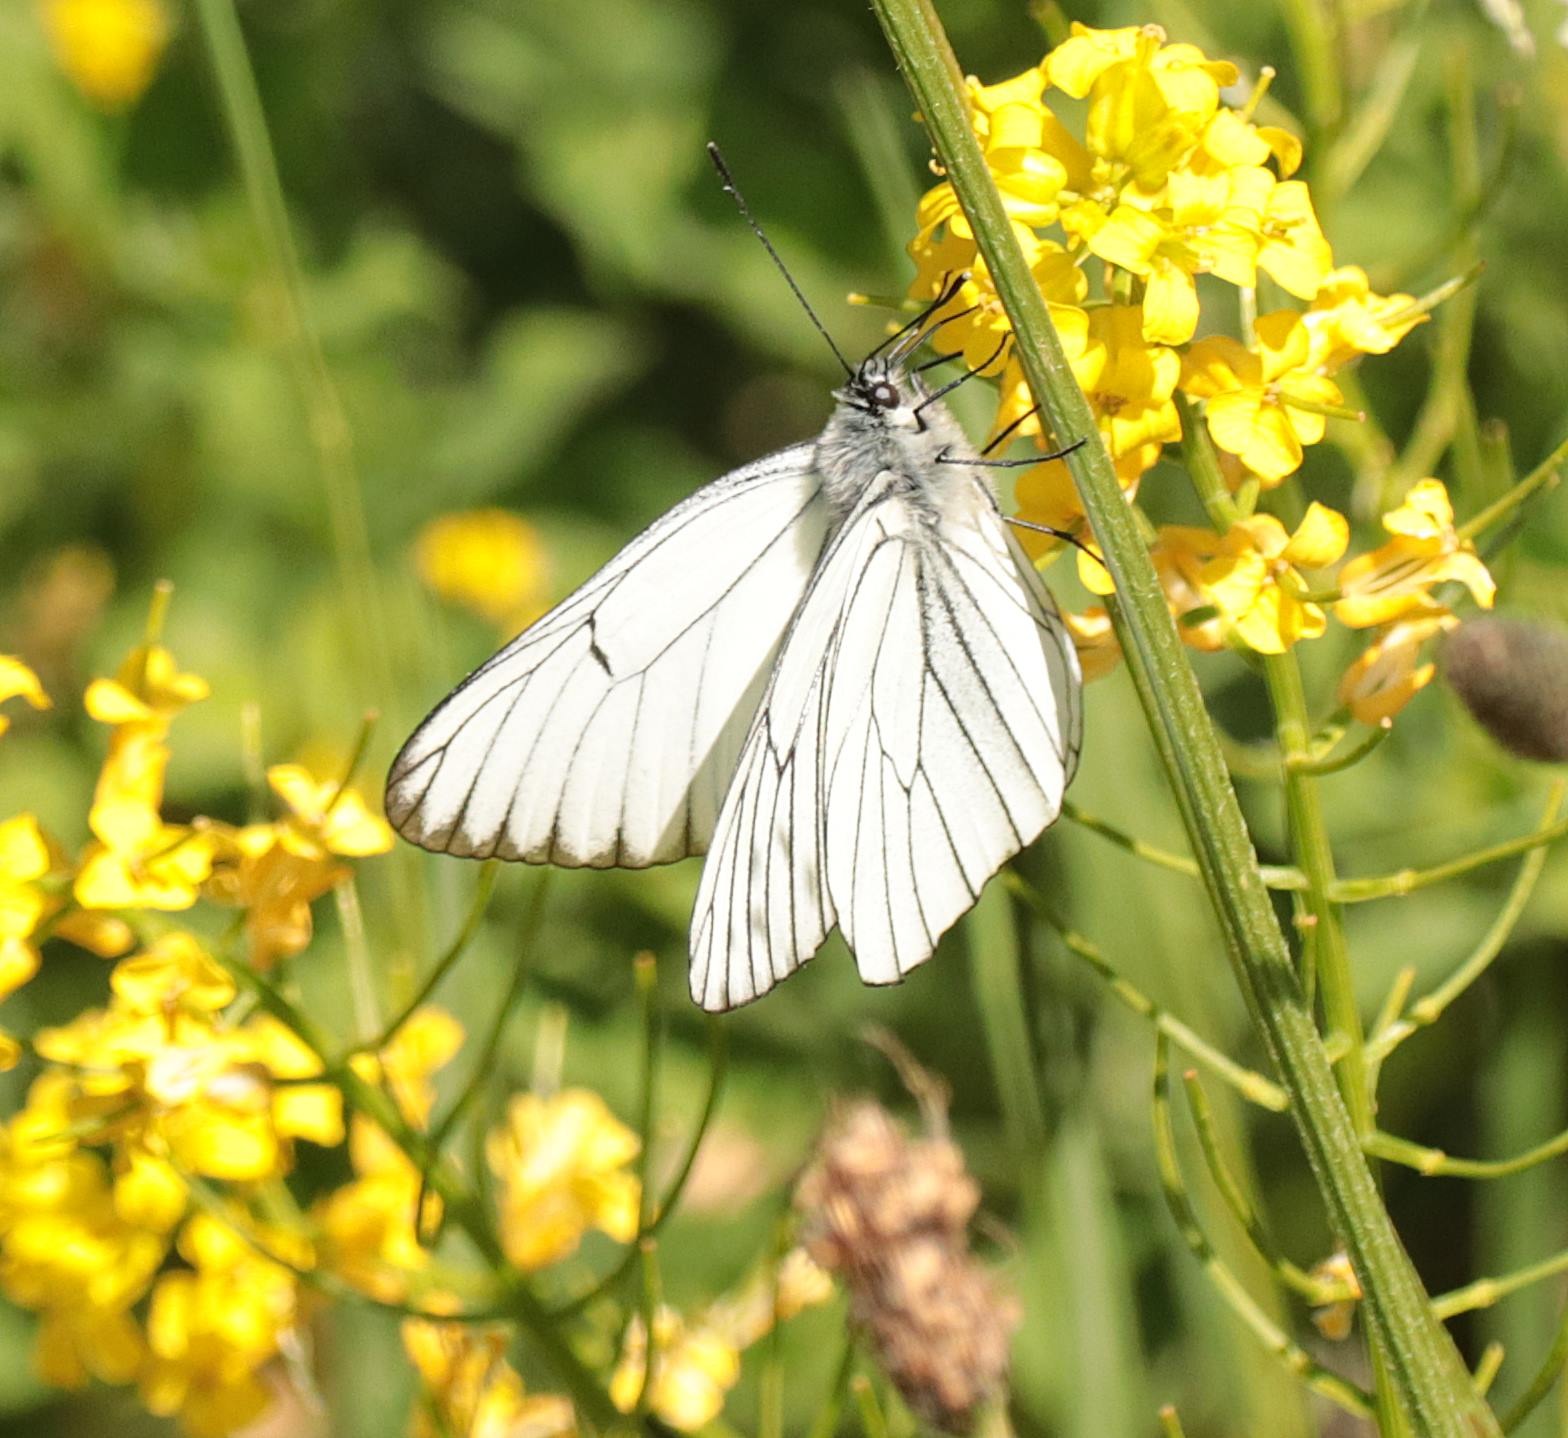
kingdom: Animalia
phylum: Arthropoda
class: Insecta
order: Lepidoptera
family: Pieridae
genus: Aporia
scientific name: Aporia crataegi
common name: Sortåret hvidvinge
